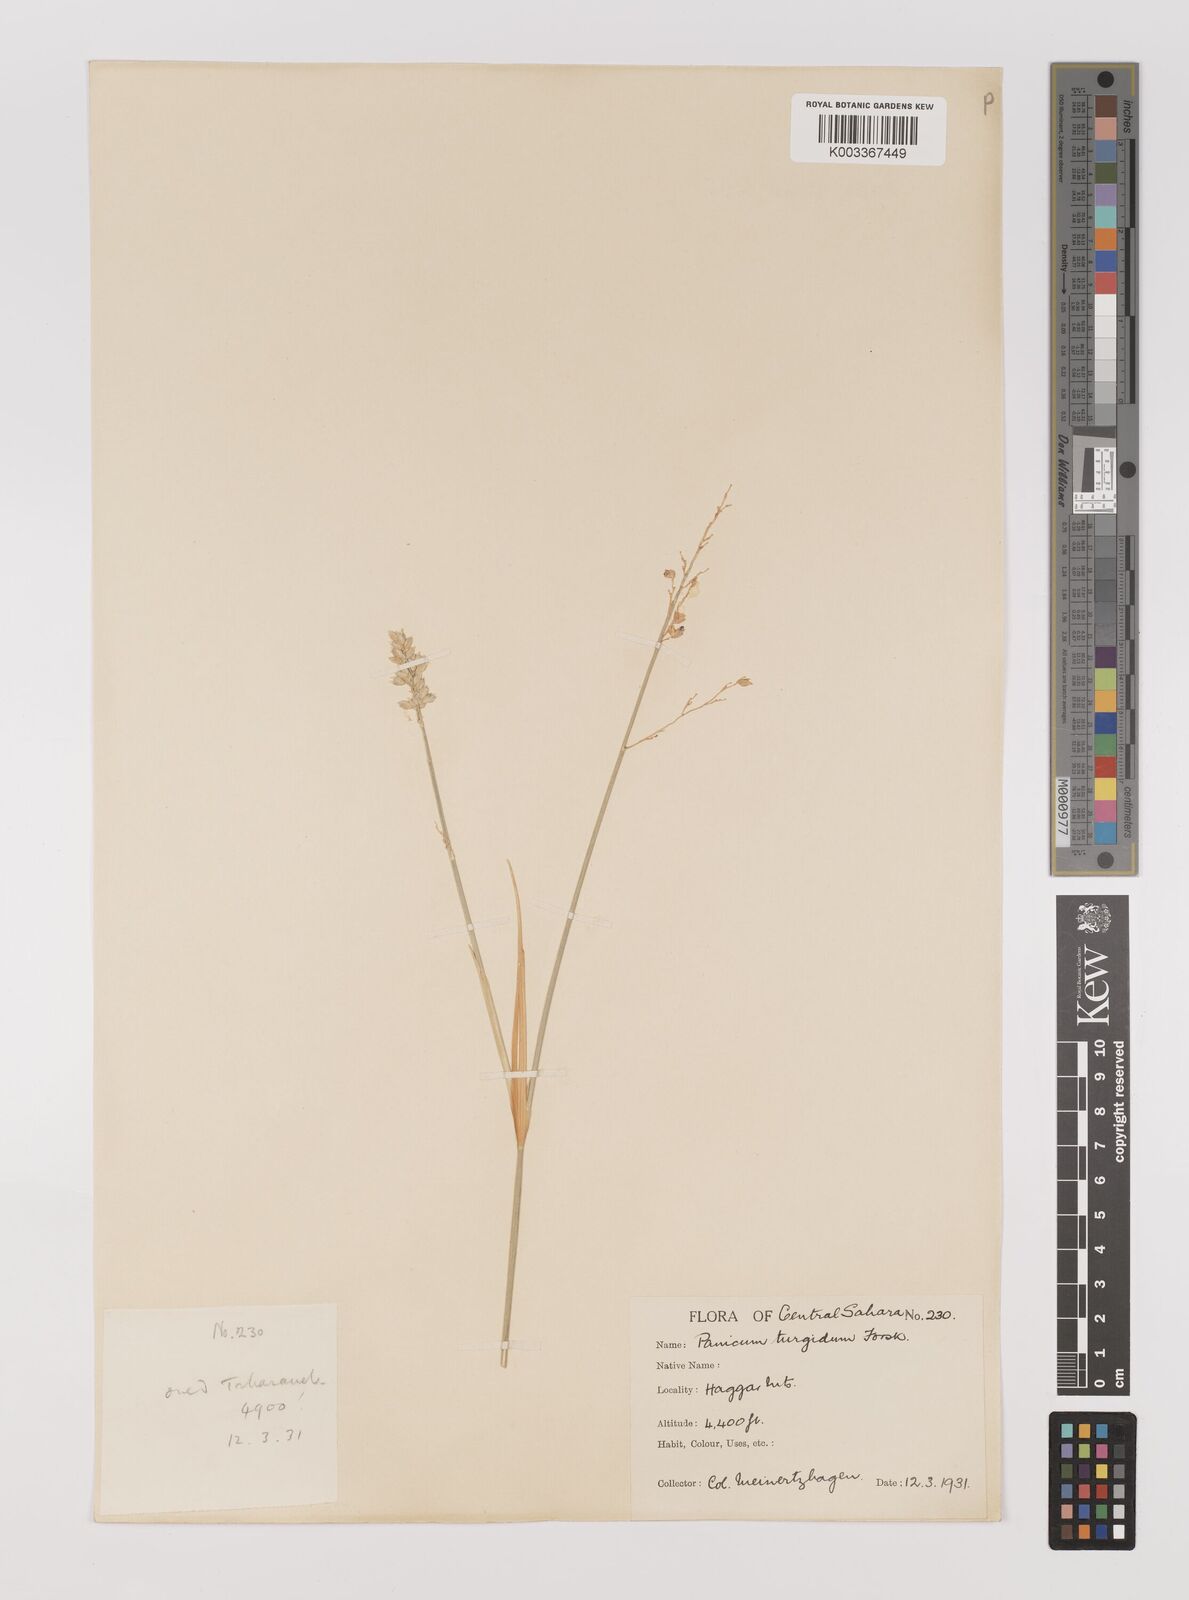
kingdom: Plantae
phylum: Tracheophyta
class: Liliopsida
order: Poales
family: Poaceae
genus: Panicum
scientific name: Panicum turgidum
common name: Desert grass
